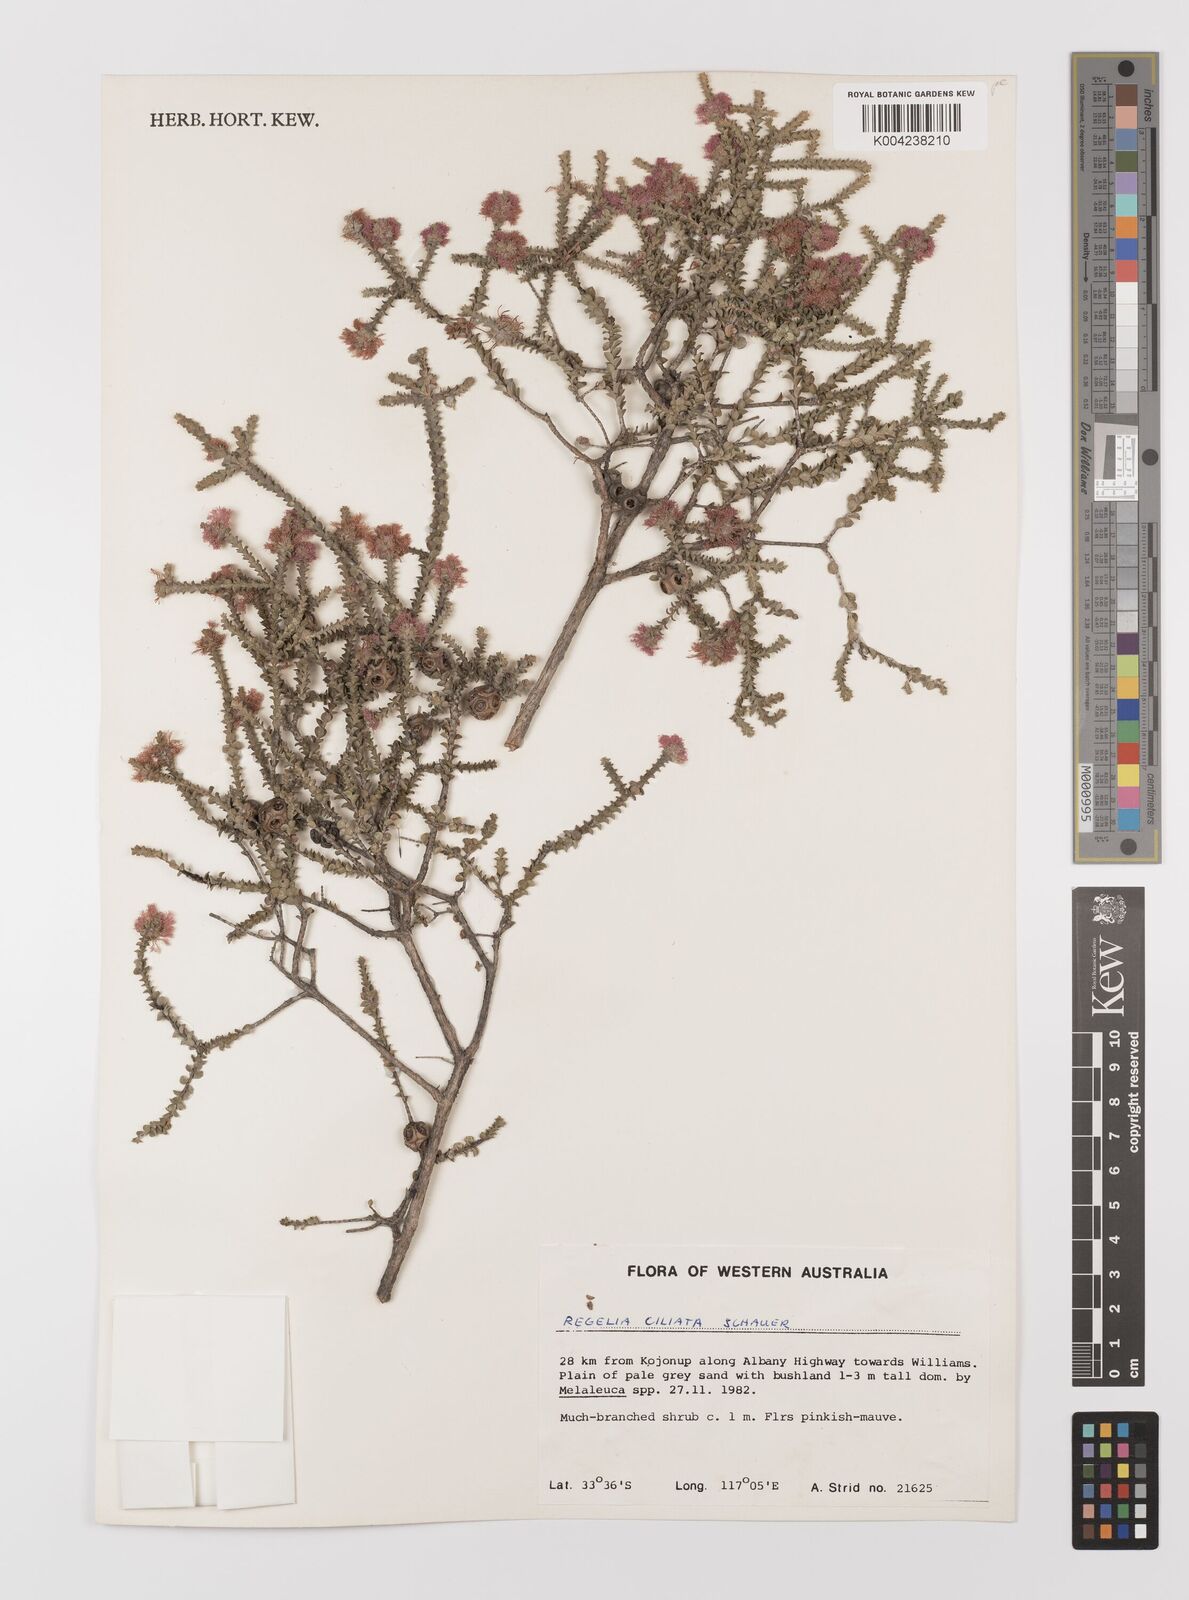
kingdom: Plantae
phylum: Tracheophyta
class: Magnoliopsida
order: Myrtales
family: Myrtaceae
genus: Melaleuca
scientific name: Melaleuca crossota
